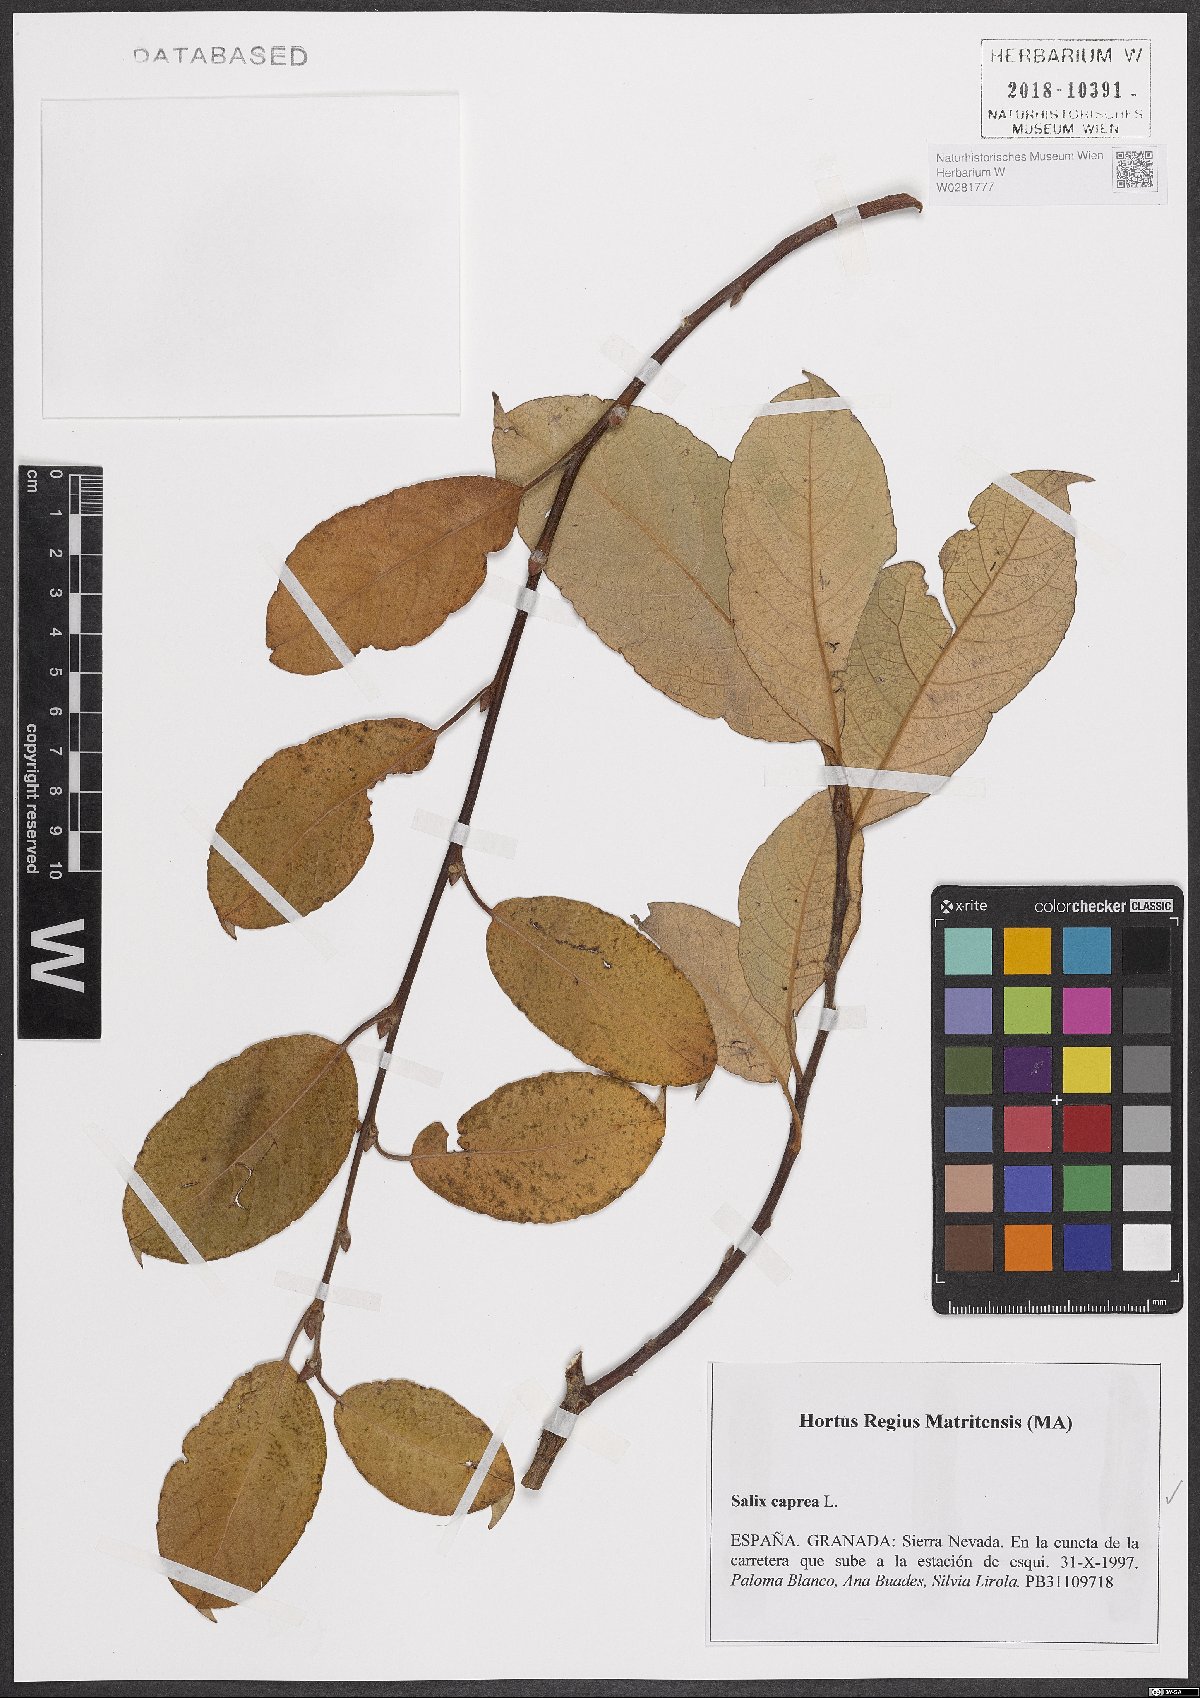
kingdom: Plantae
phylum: Tracheophyta
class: Magnoliopsida
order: Malpighiales
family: Salicaceae
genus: Salix
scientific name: Salix caprea
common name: Goat willow
